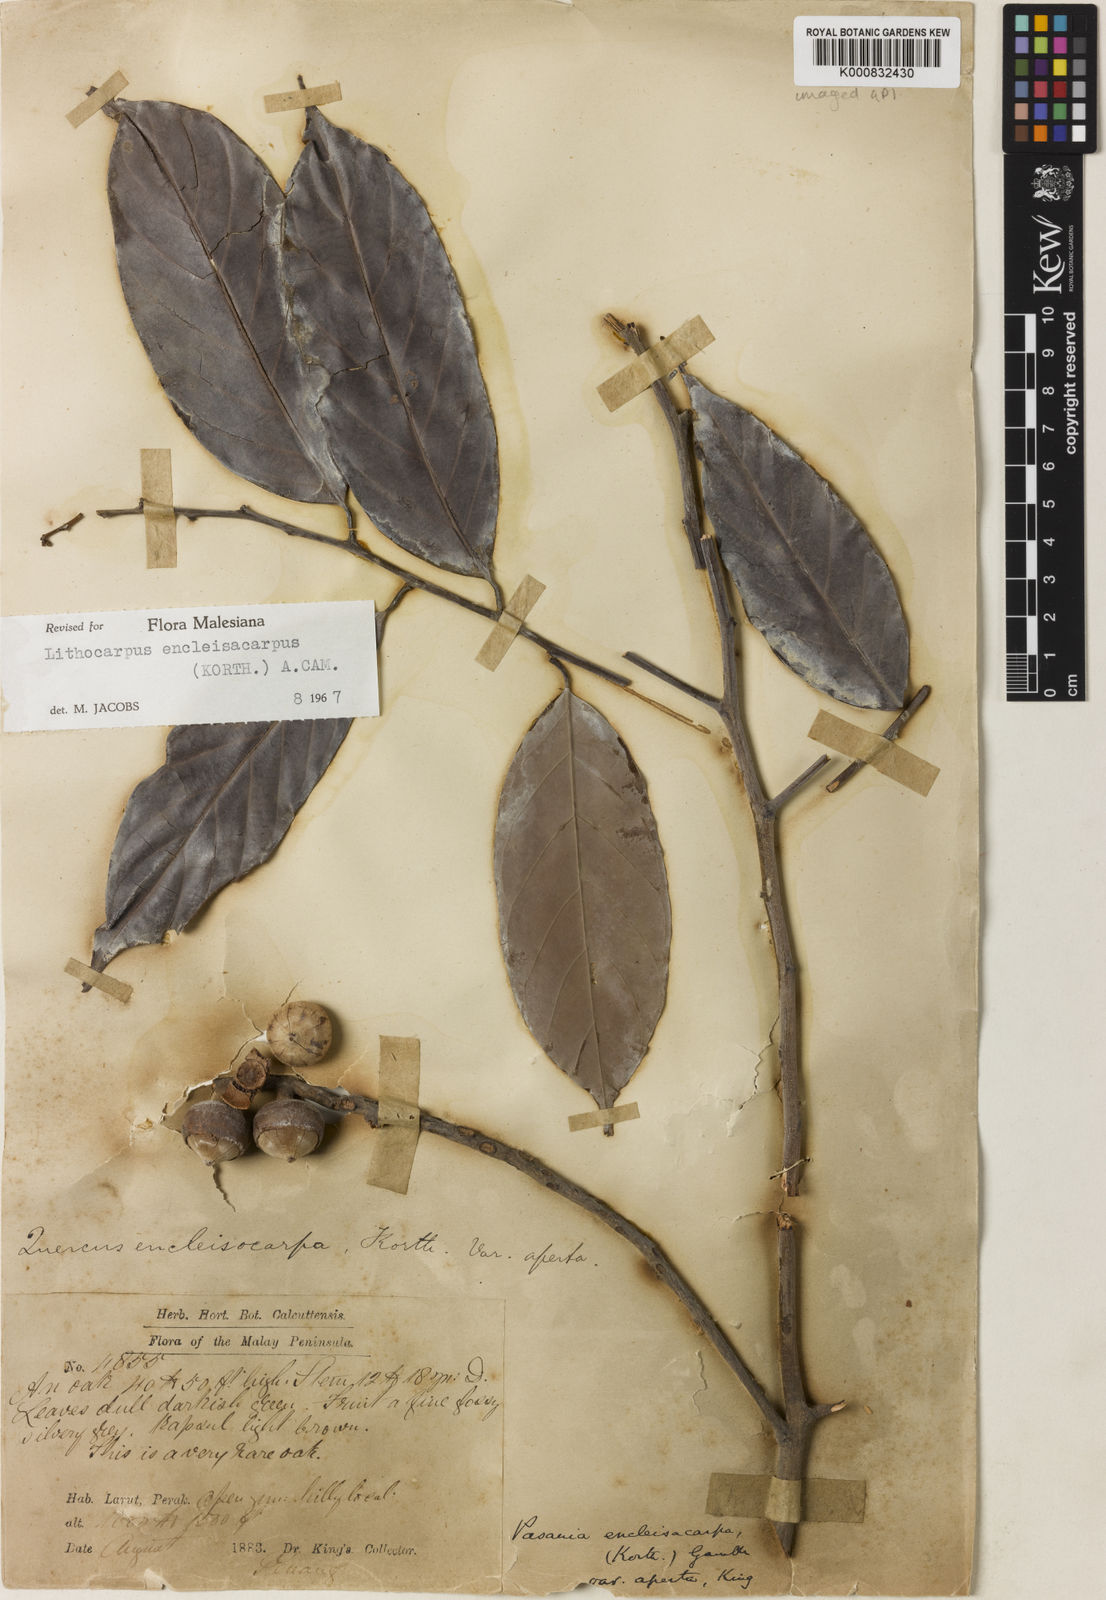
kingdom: Plantae
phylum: Tracheophyta
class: Magnoliopsida
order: Fagales
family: Fagaceae
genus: Lithocarpus
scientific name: Lithocarpus encleisacarpus
